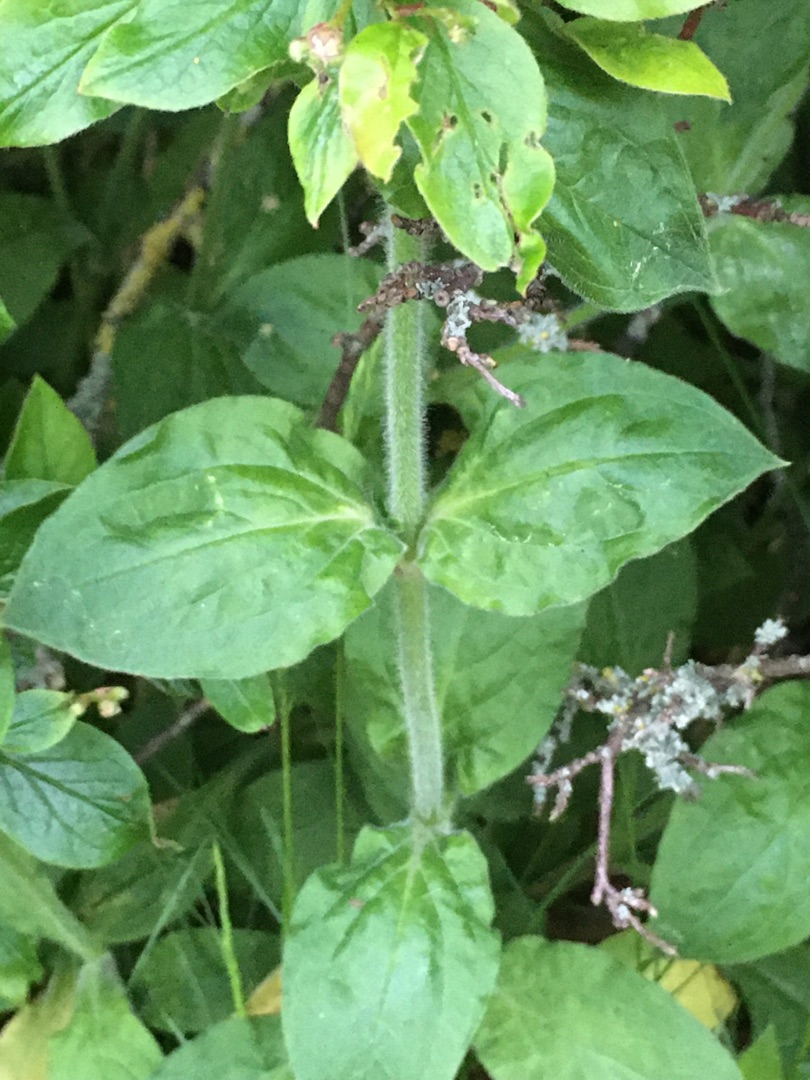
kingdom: Plantae
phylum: Tracheophyta
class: Magnoliopsida
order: Caryophyllales
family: Caryophyllaceae
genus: Silene
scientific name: Silene dioica
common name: Dagpragtstjerne
